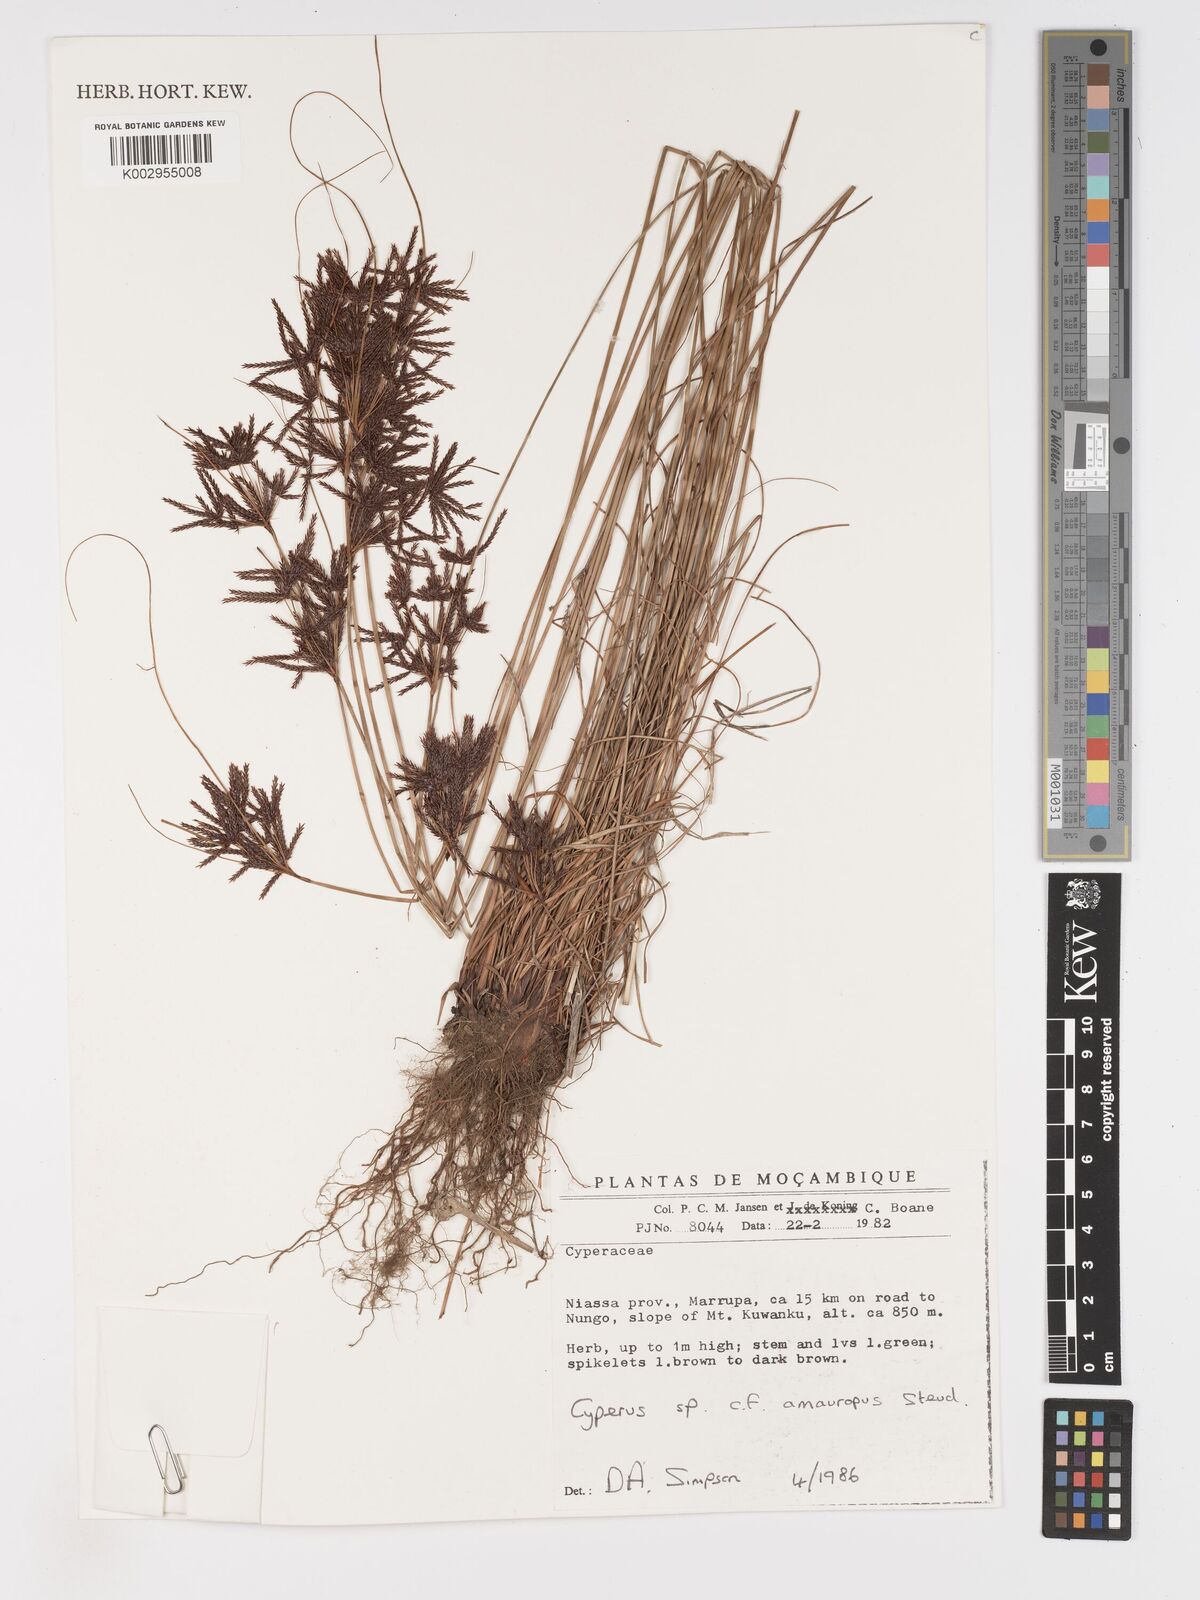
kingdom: Plantae
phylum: Tracheophyta
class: Liliopsida
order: Poales
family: Cyperaceae
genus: Cyperus
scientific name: Cyperus amauropus
